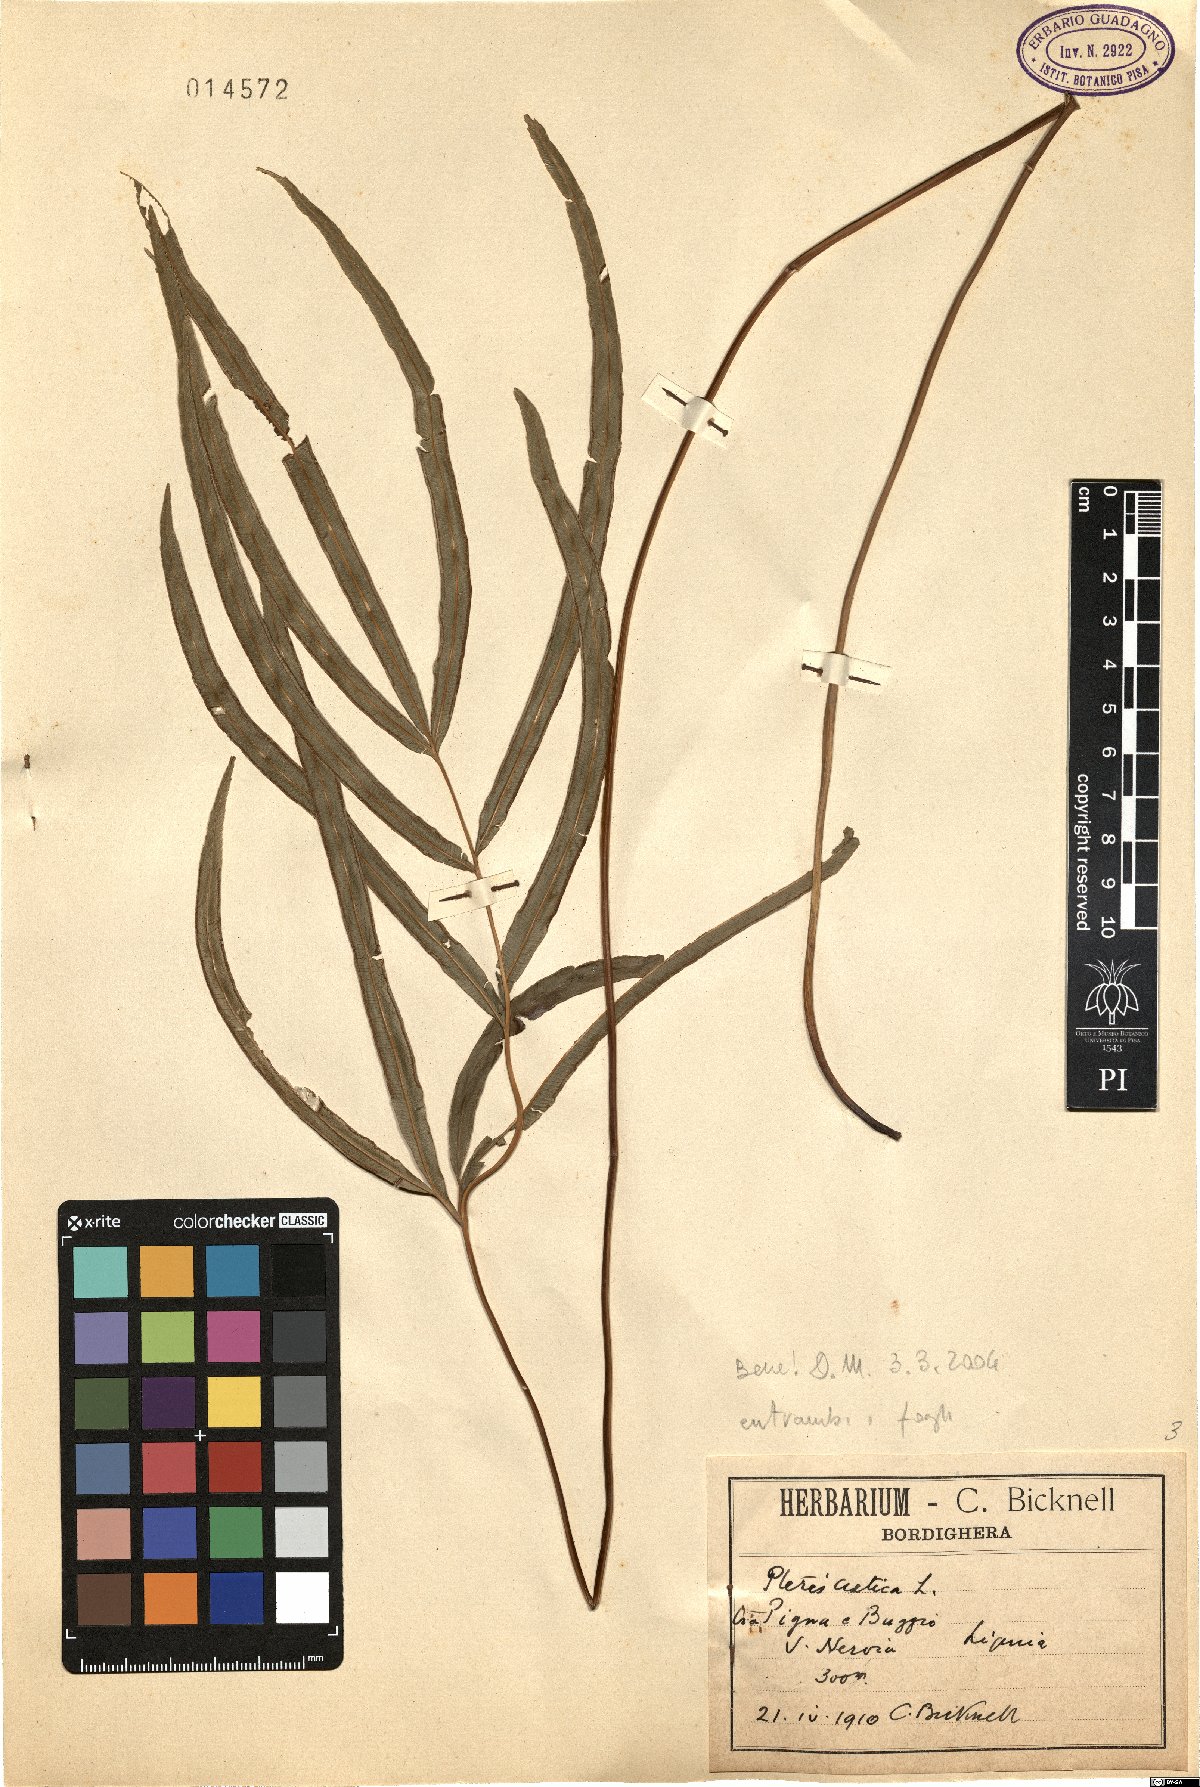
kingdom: Plantae
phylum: Tracheophyta
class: Polypodiopsida
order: Polypodiales
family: Pteridaceae
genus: Pteris
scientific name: Pteris cretica
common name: Ribbon fern
